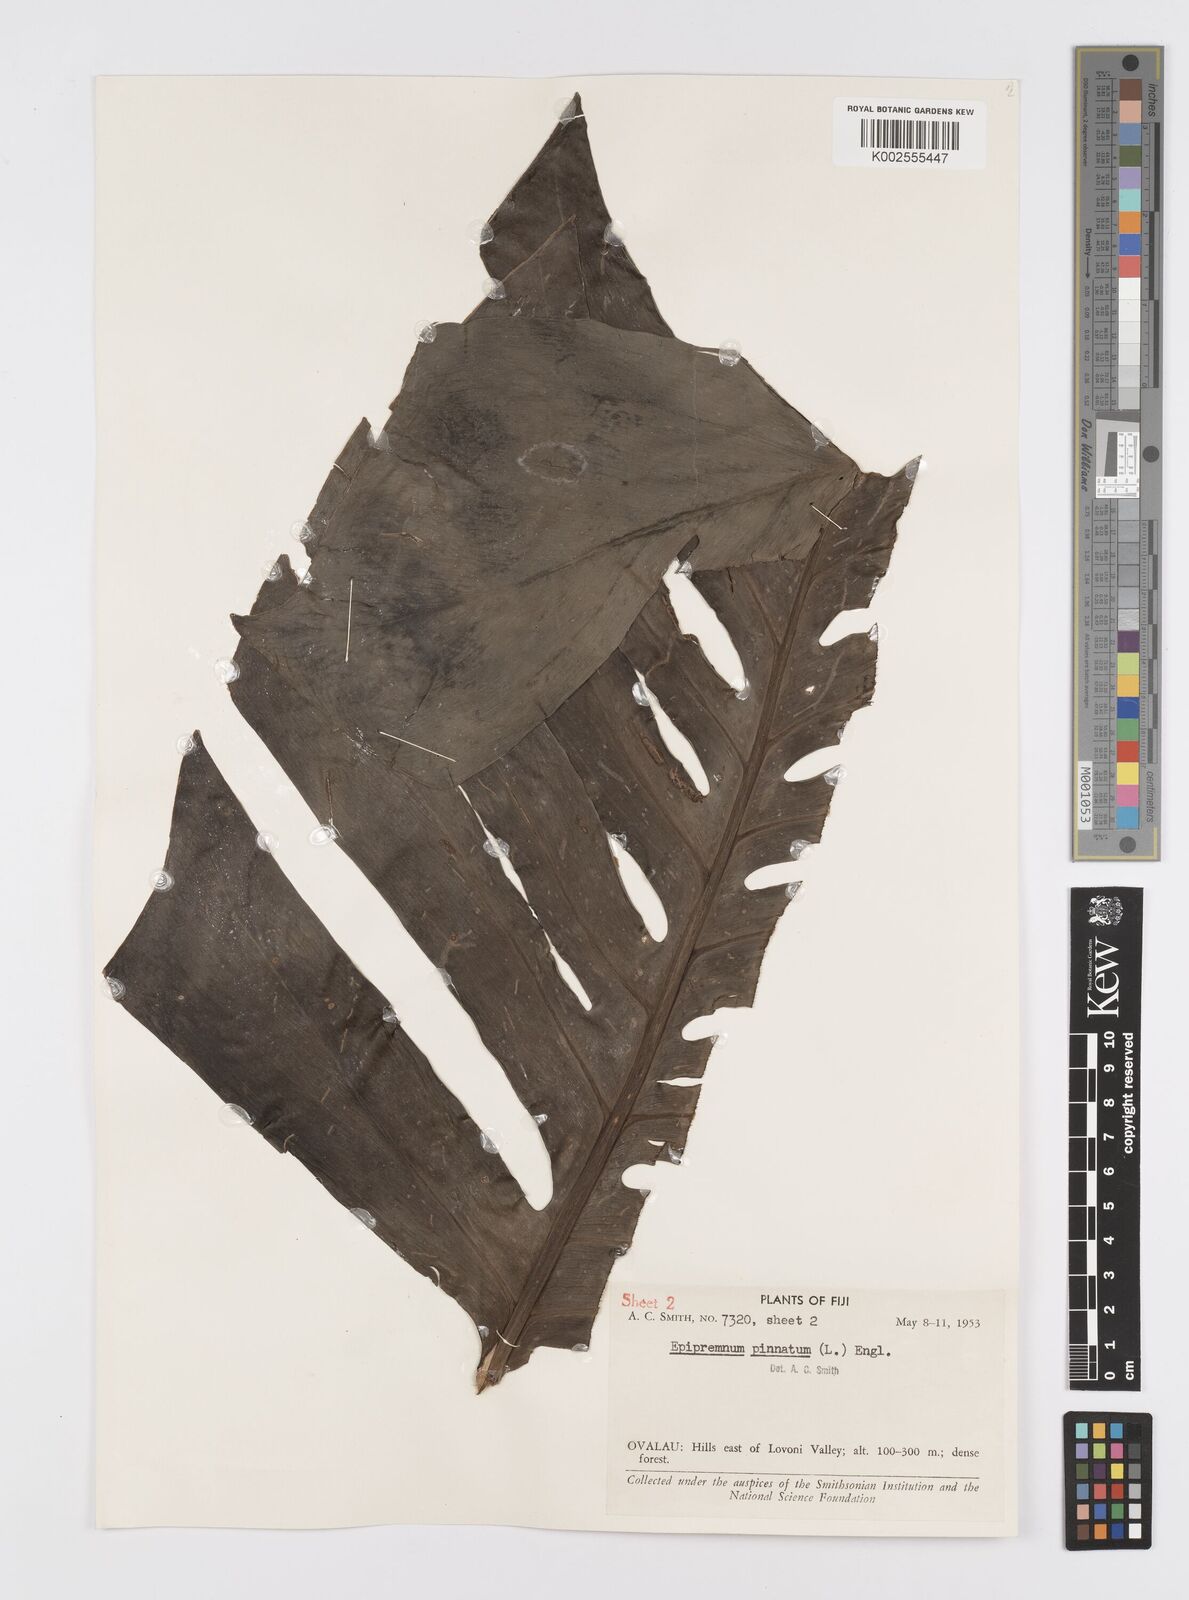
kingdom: Plantae
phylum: Tracheophyta
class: Liliopsida
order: Alismatales
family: Araceae
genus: Epipremnum
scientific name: Epipremnum pinnatum
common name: Centipede tongavine
